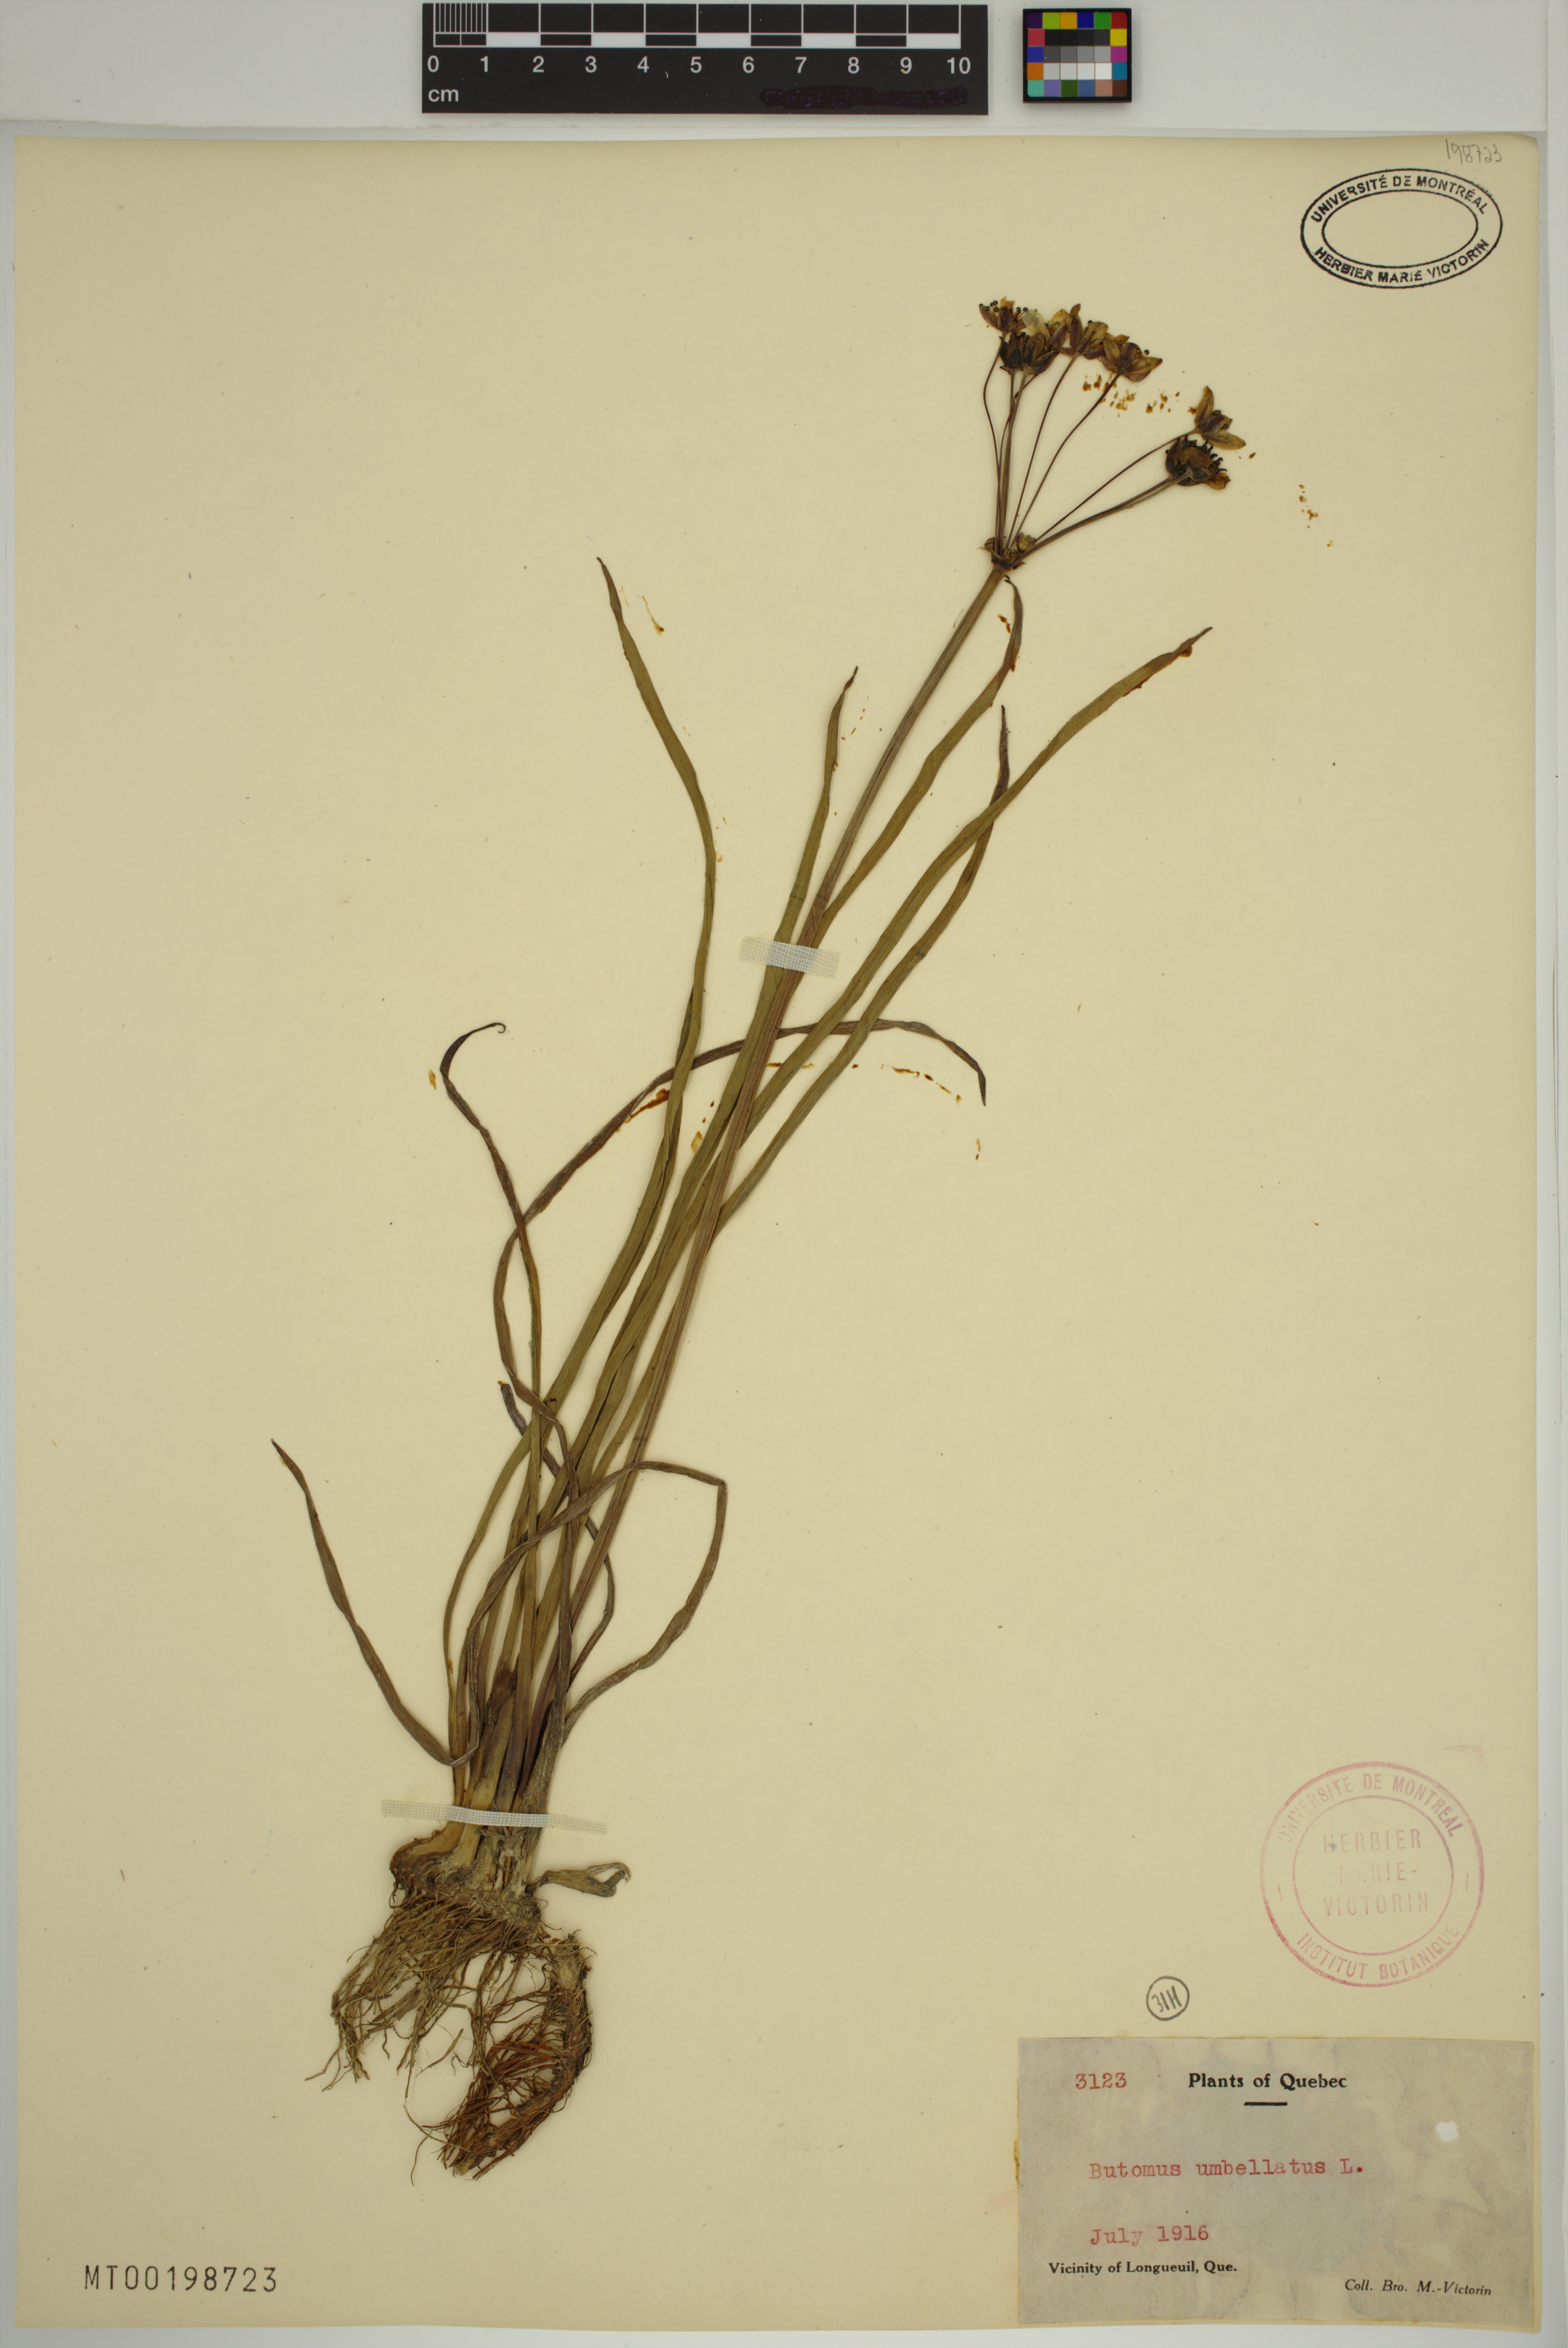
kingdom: Plantae
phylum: Tracheophyta
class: Liliopsida
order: Alismatales
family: Butomaceae
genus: Butomus
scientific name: Butomus umbellatus
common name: Flowering-rush
